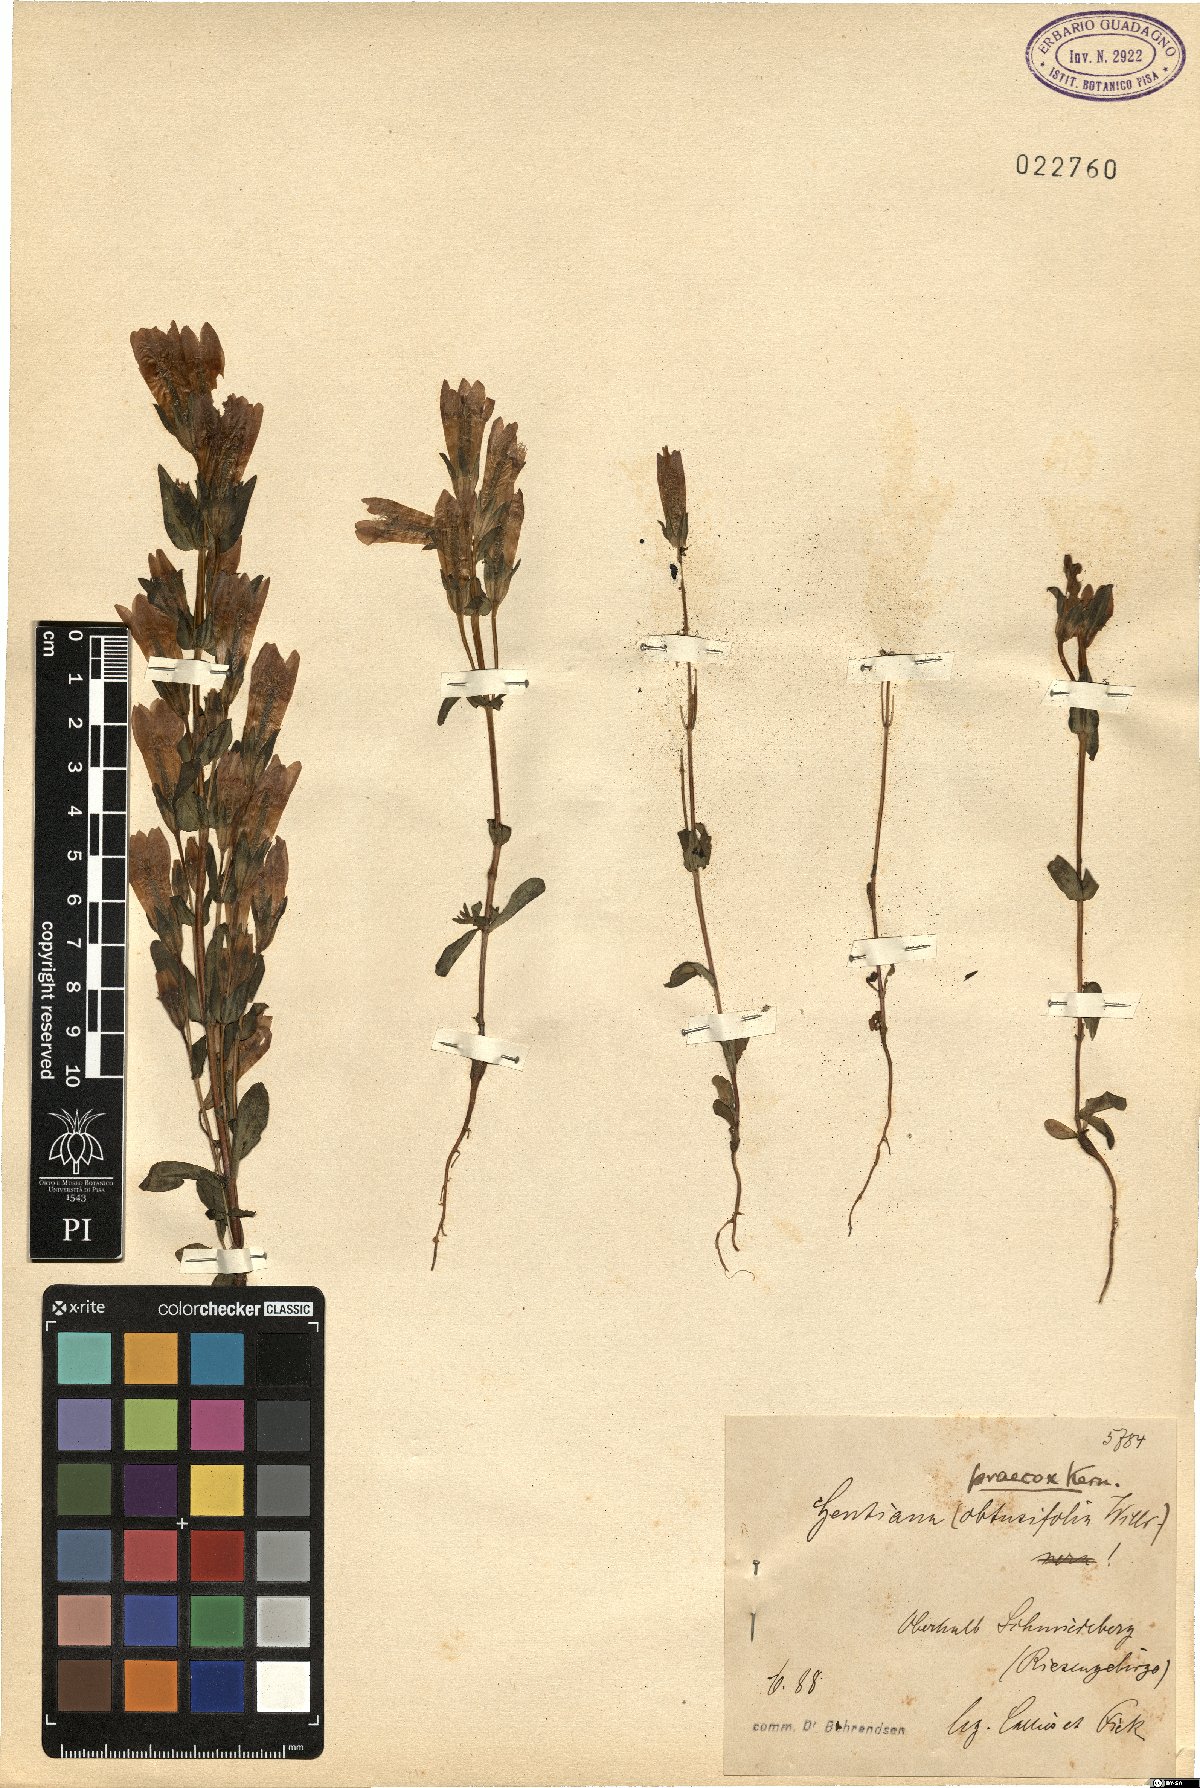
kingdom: Plantae
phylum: Tracheophyta
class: Magnoliopsida
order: Gentianales
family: Gentianaceae
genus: Gentianella
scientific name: Gentianella praecox
